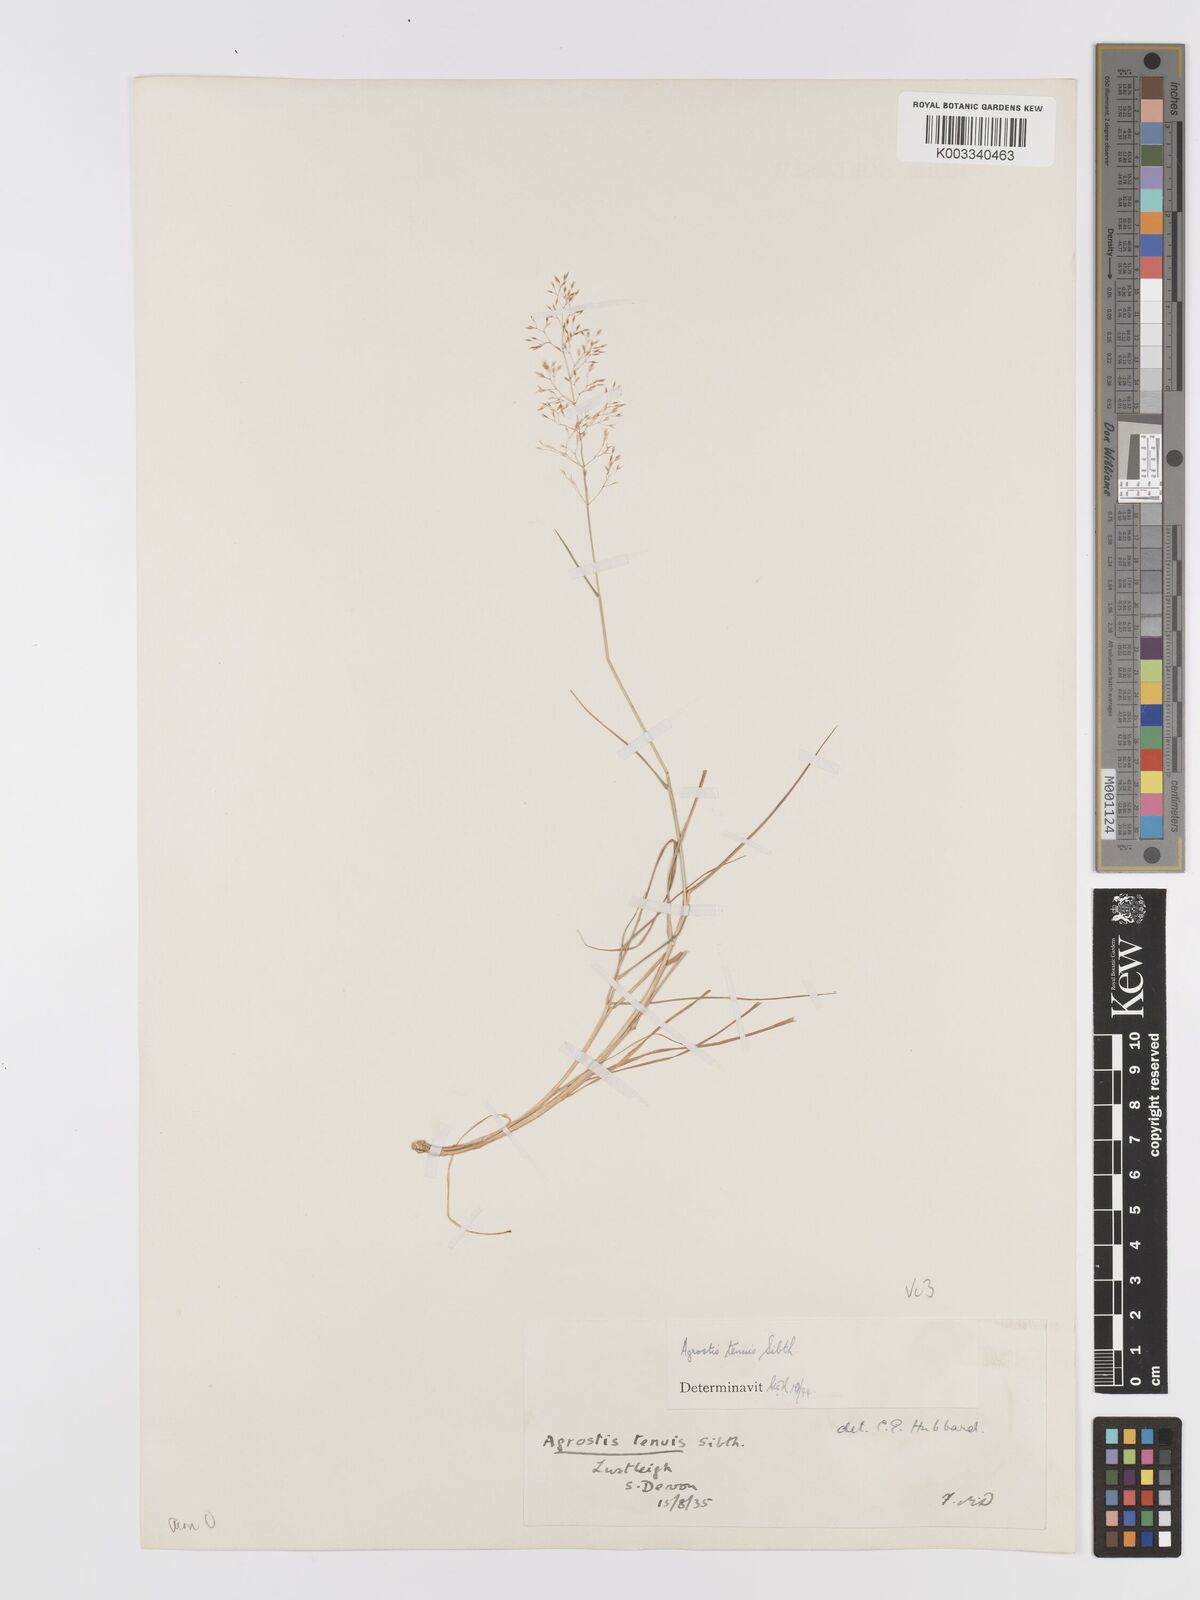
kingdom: Plantae
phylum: Tracheophyta
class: Liliopsida
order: Poales
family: Poaceae
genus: Agrostis
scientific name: Agrostis capillaris
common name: Colonial bentgrass
